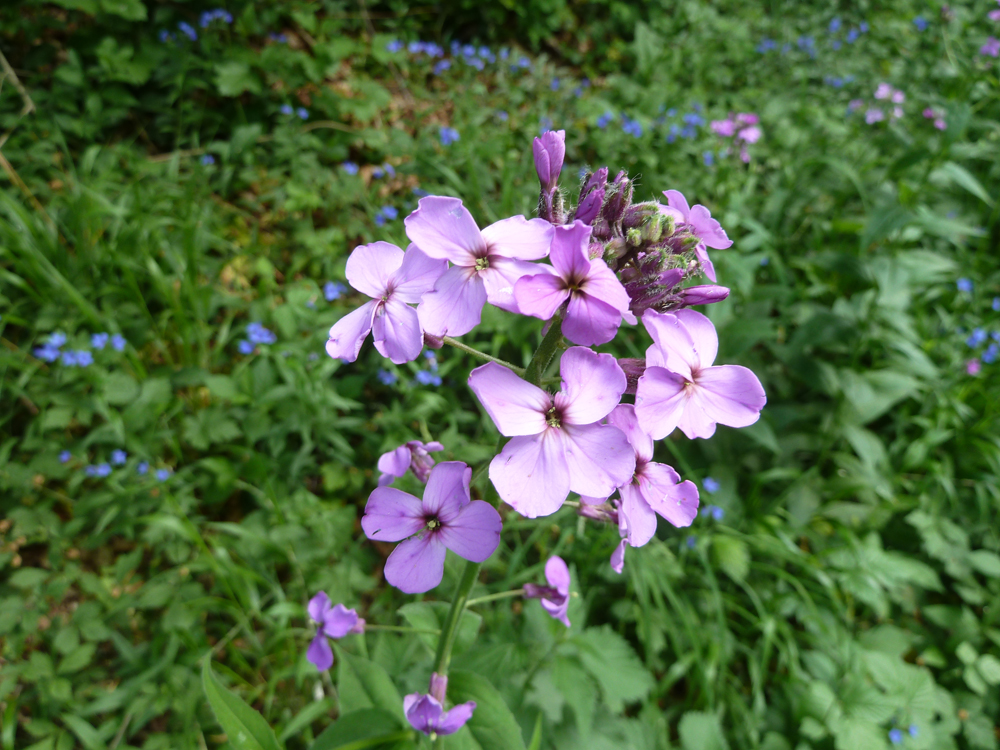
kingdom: Plantae
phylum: Tracheophyta
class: Magnoliopsida
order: Brassicales
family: Brassicaceae
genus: Hesperis
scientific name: Hesperis matronalis
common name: Dame's-violet
